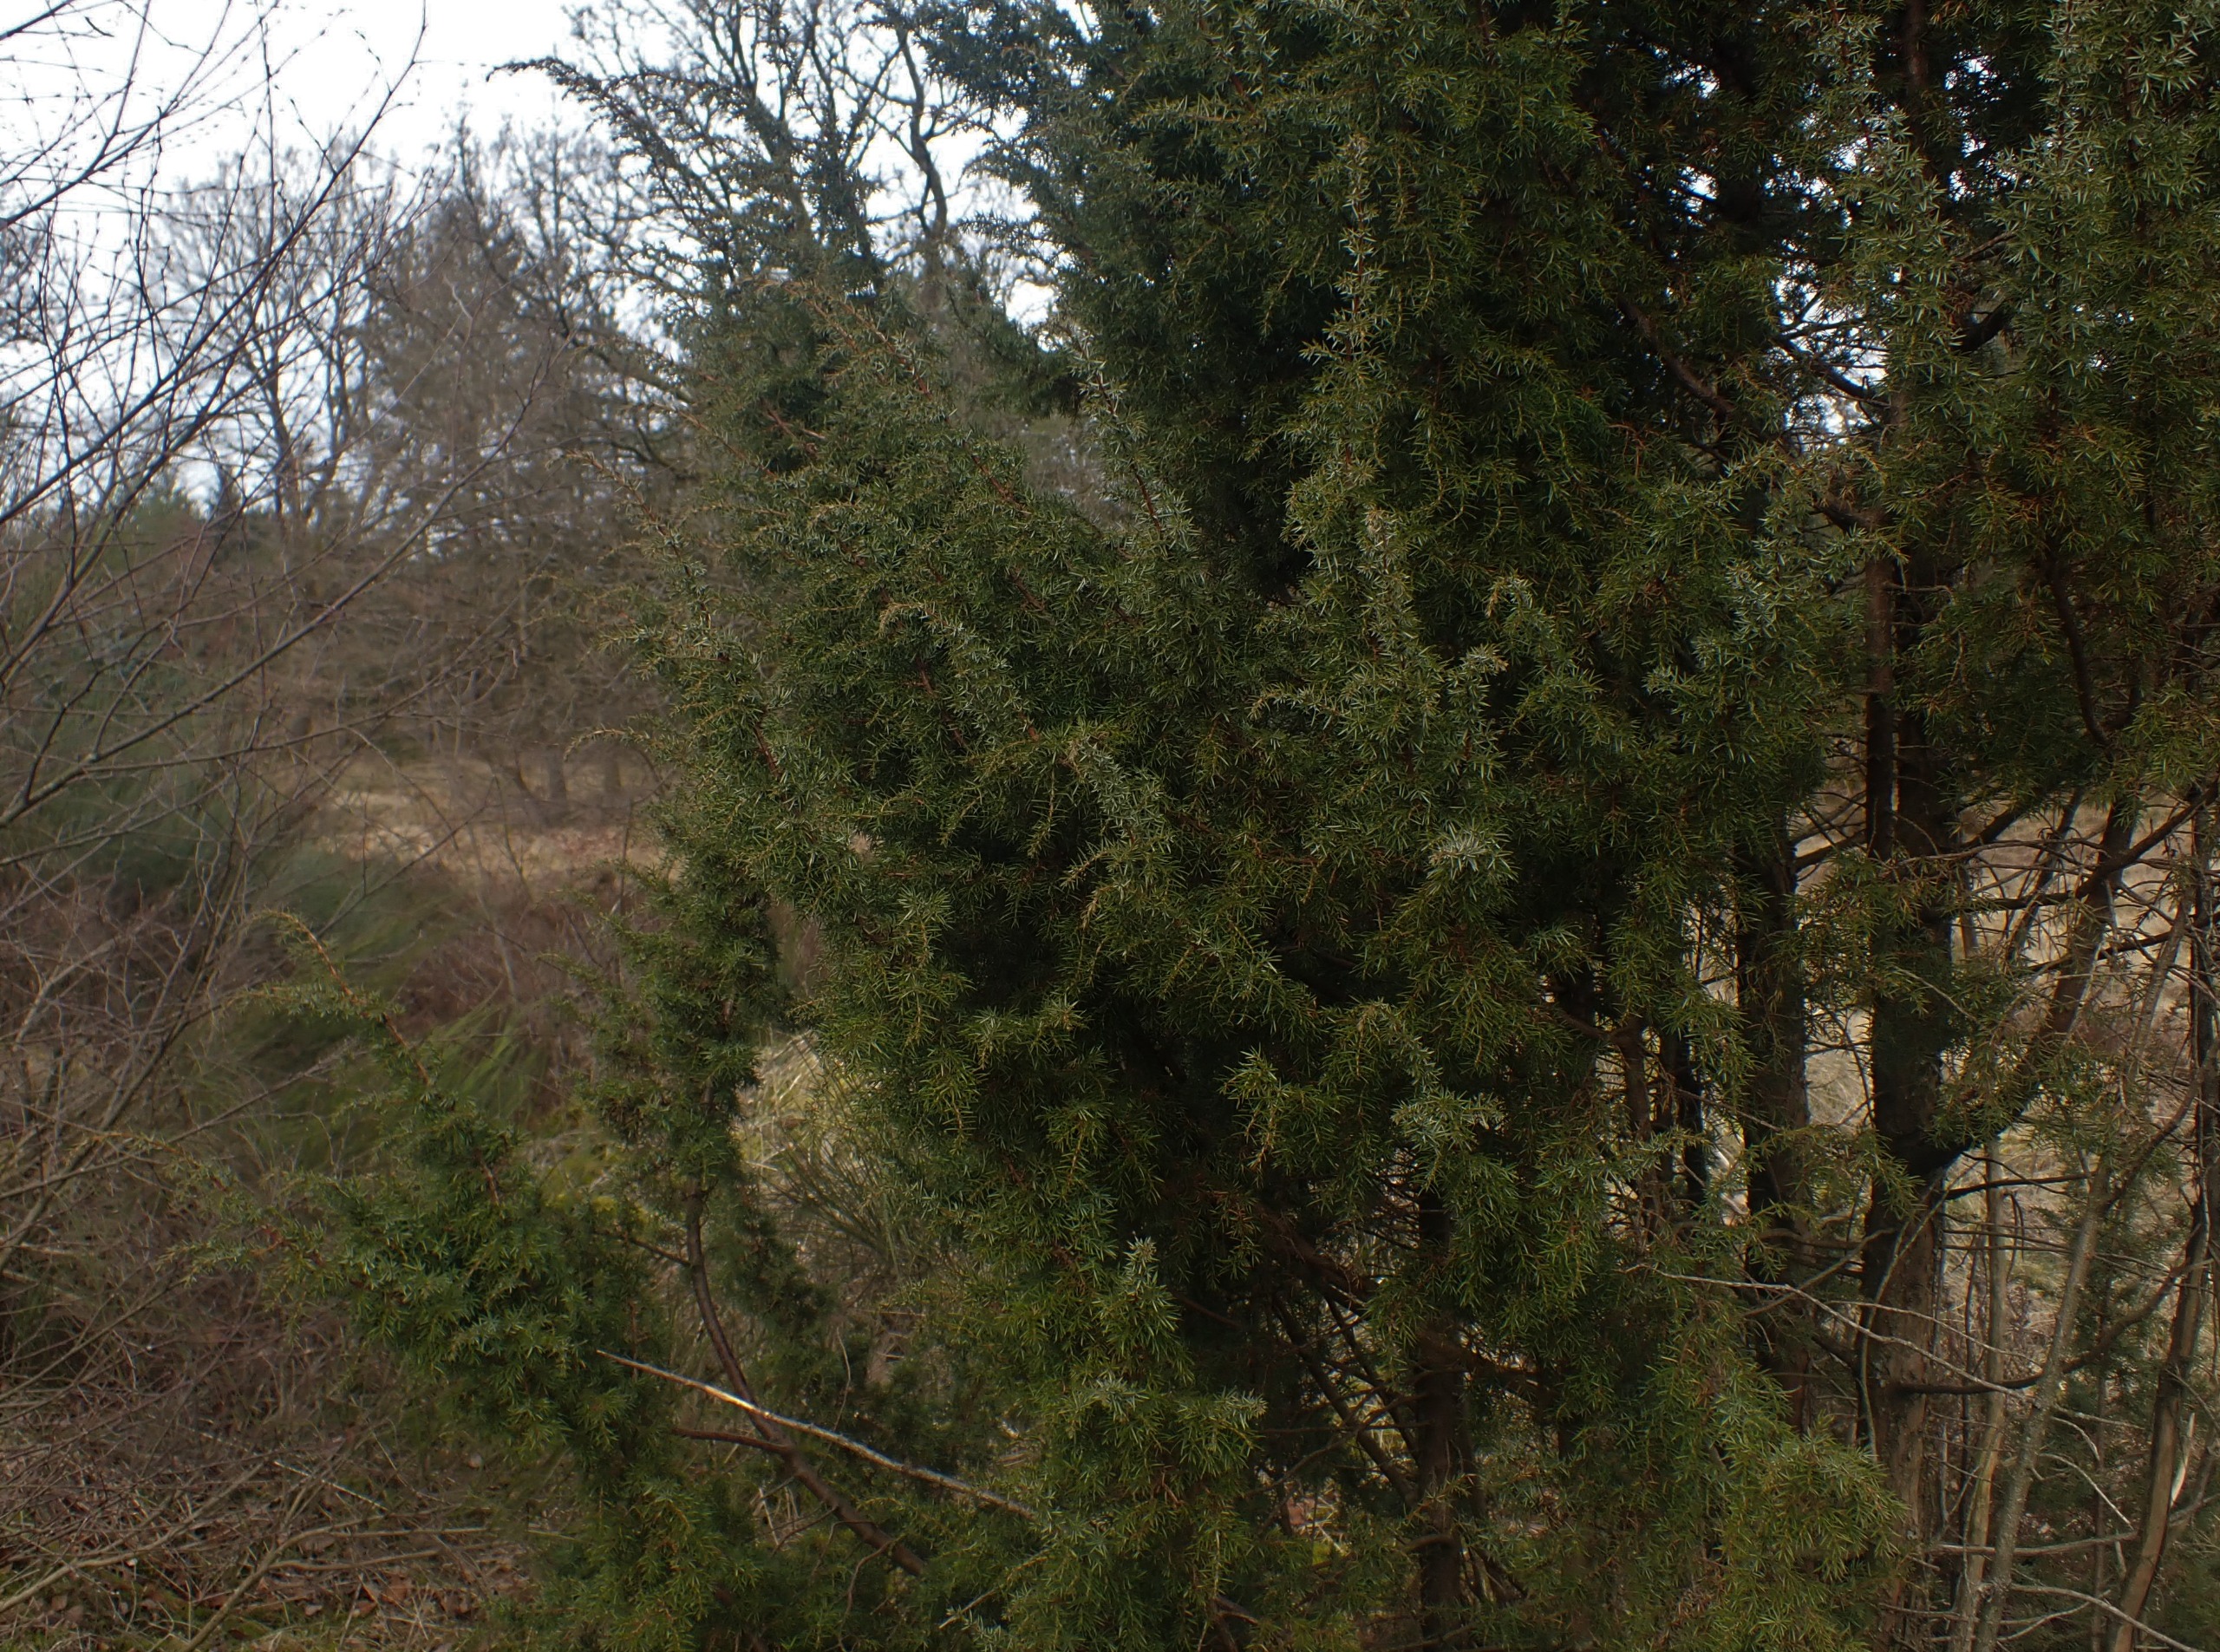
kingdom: Plantae
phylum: Tracheophyta
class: Pinopsida
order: Pinales
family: Cupressaceae
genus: Juniperus
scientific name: Juniperus communis
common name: Almindelig ene
